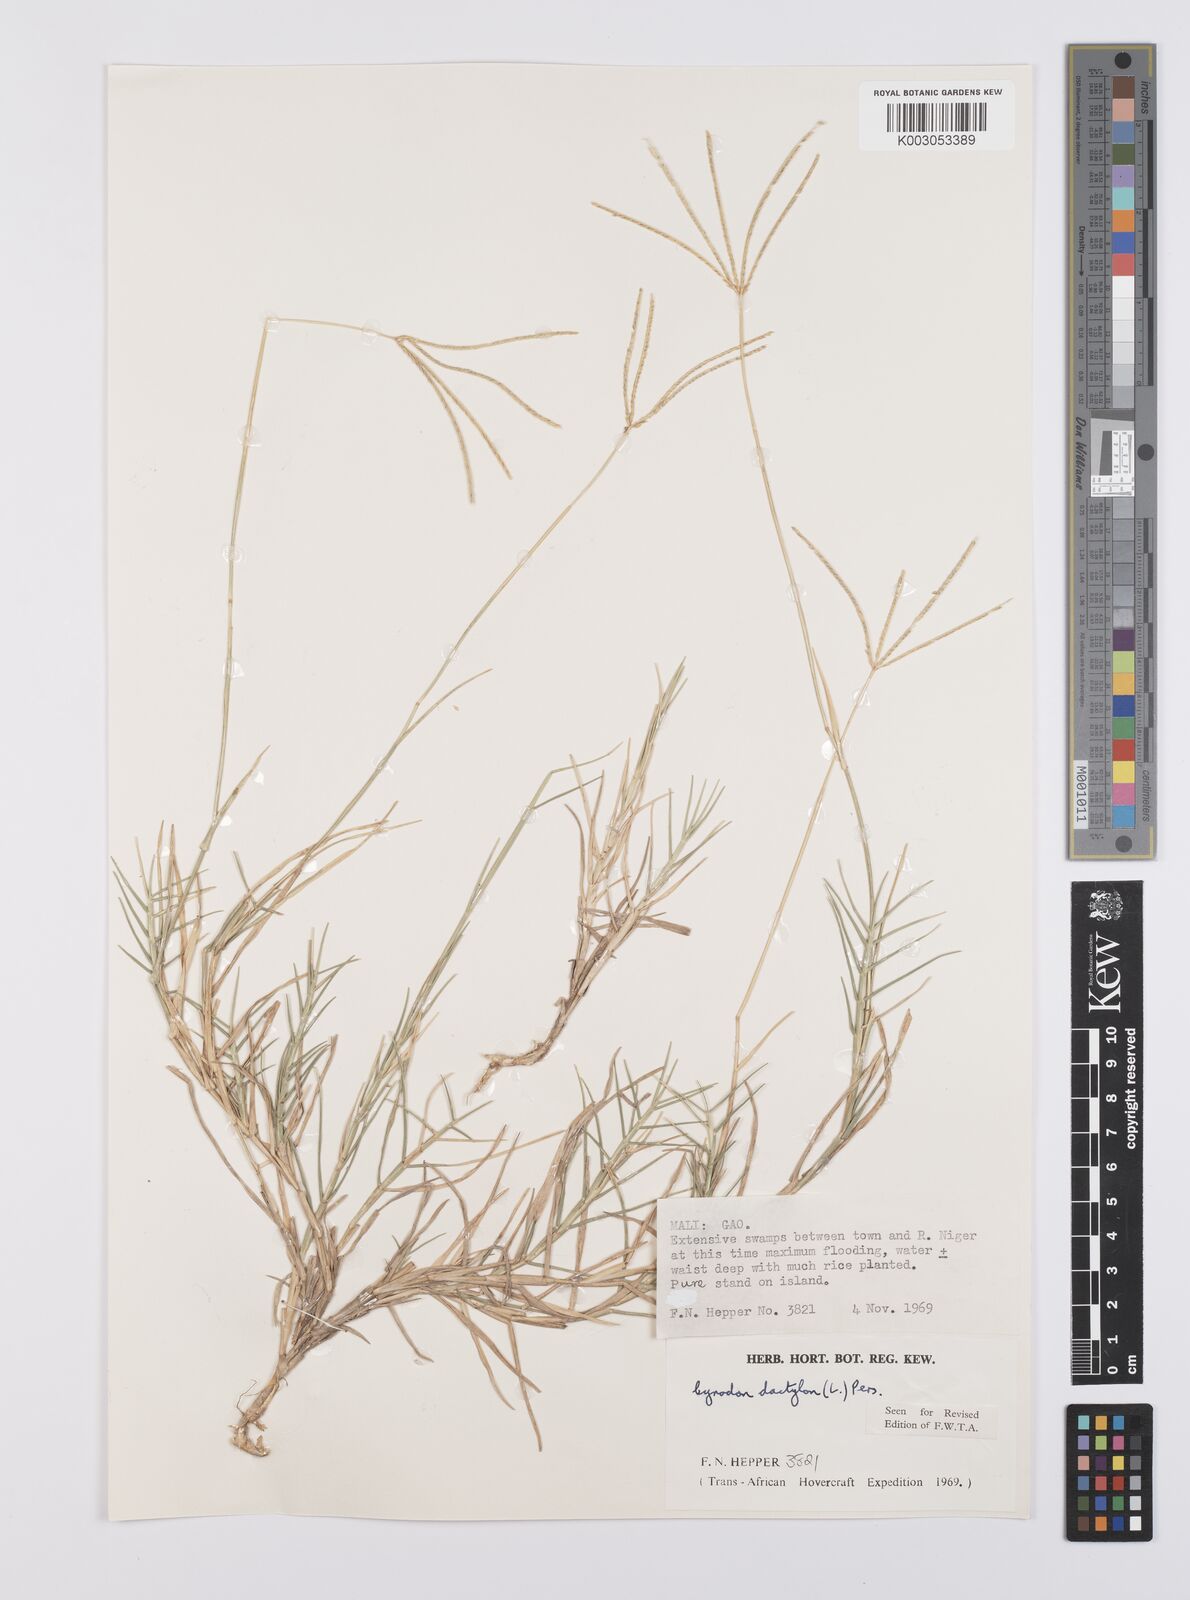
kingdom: Plantae
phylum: Tracheophyta
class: Liliopsida
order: Poales
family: Poaceae
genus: Cynodon
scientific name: Cynodon dactylon
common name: Bermuda grass
